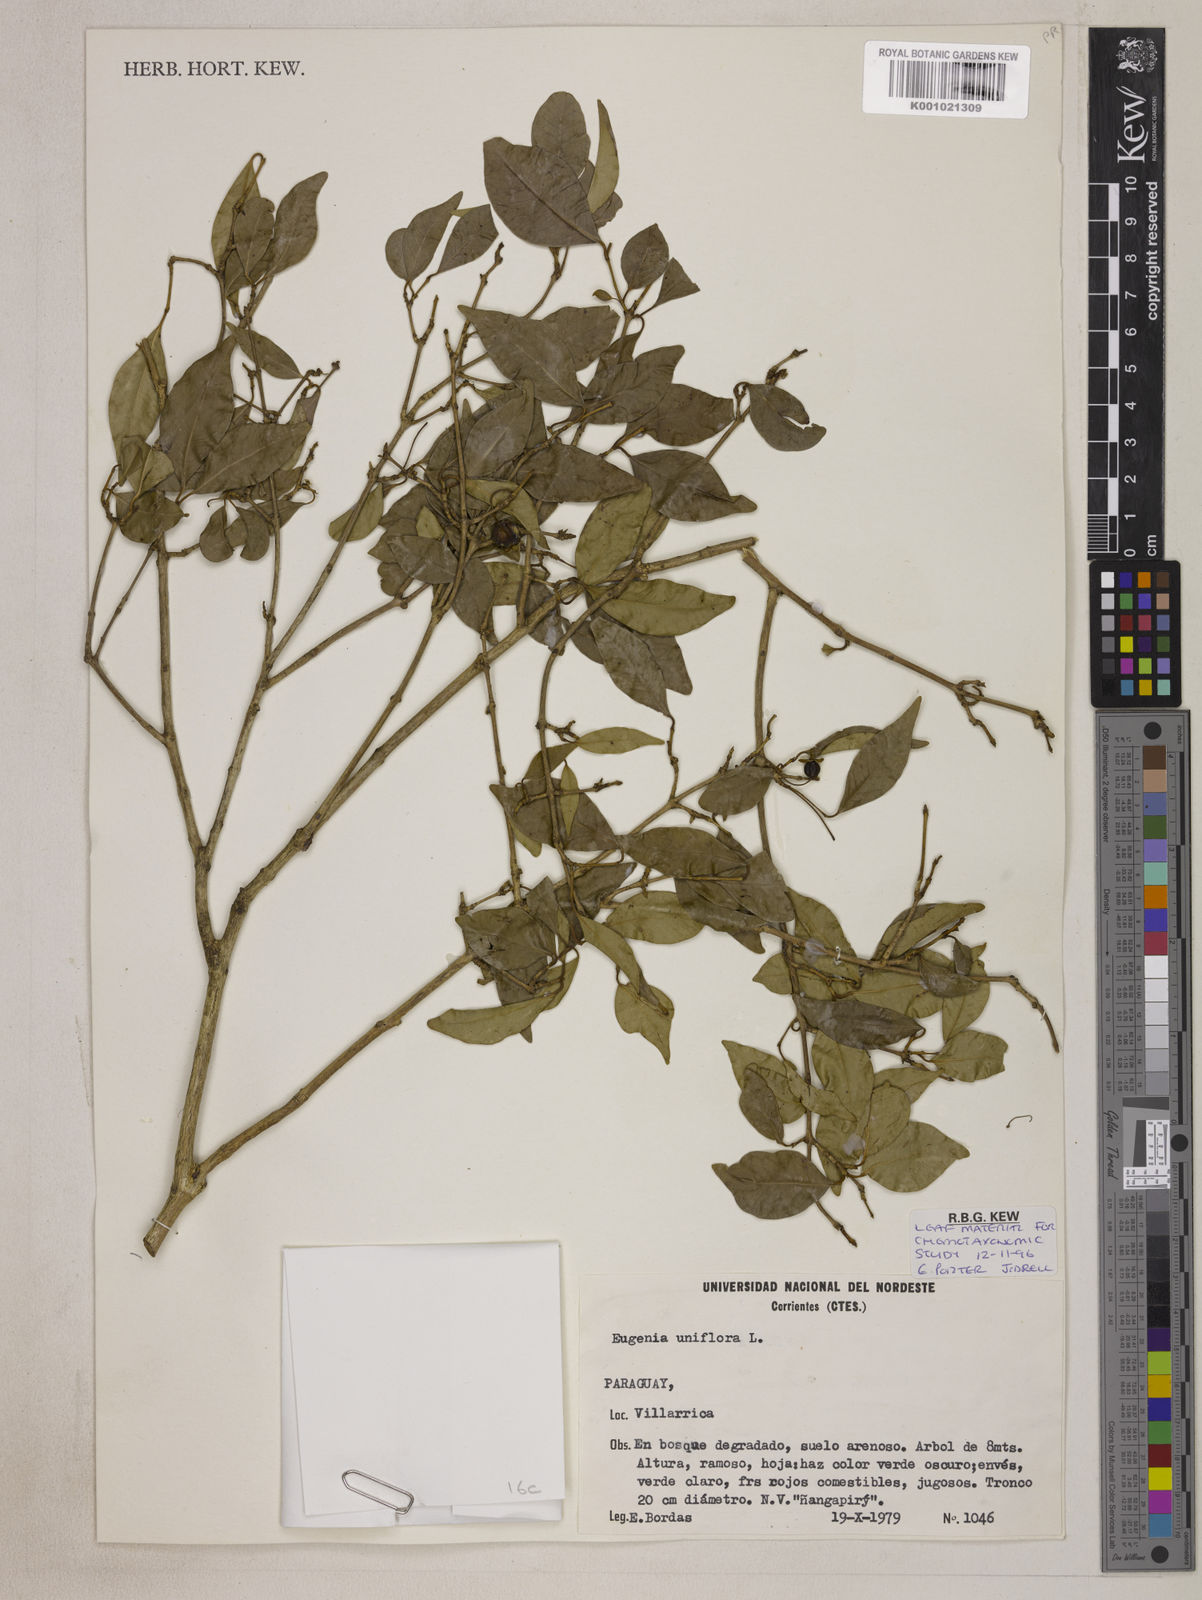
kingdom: Plantae
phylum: Tracheophyta
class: Magnoliopsida
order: Myrtales
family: Myrtaceae
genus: Eugenia
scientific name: Eugenia uniflora
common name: Surinam cherry
